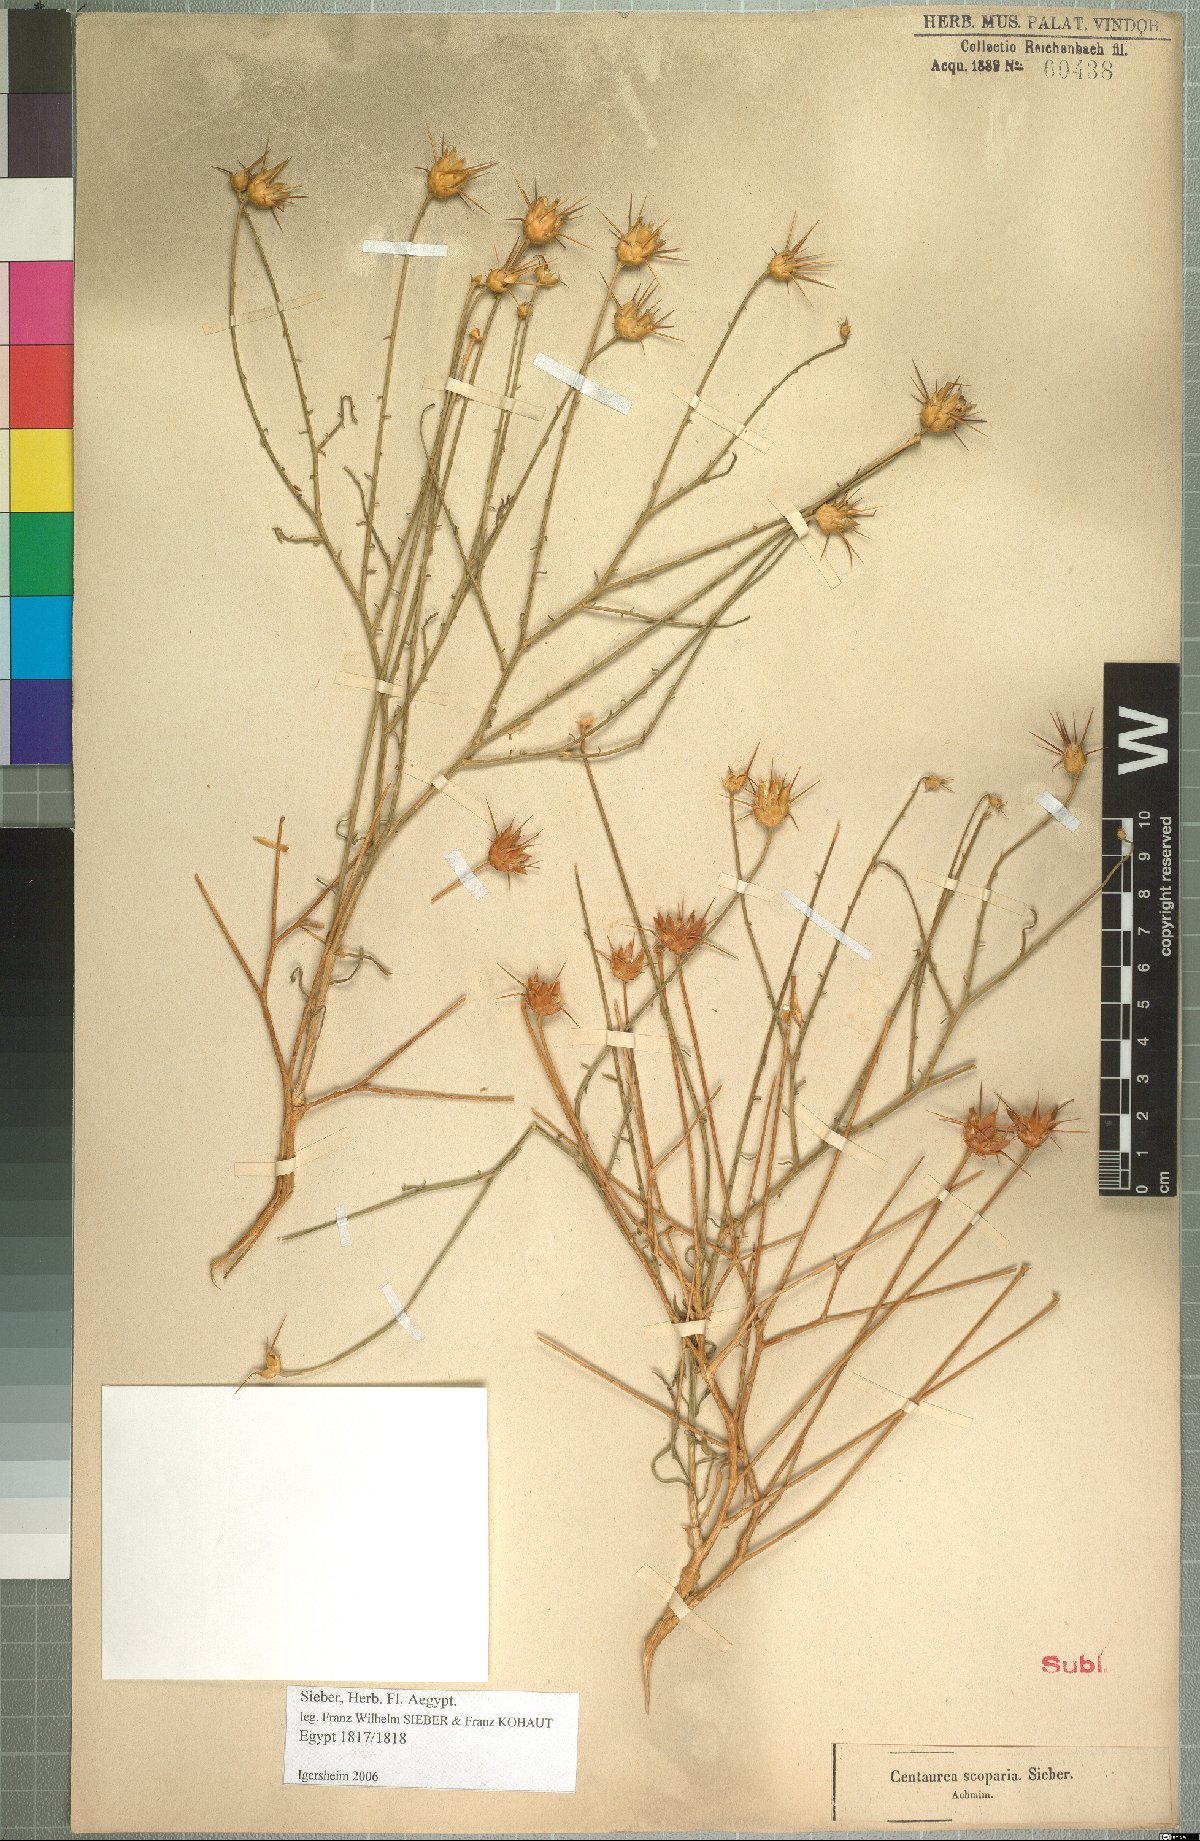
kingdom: Plantae
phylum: Tracheophyta
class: Magnoliopsida
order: Asterales
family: Asteraceae
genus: Centaurea
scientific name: Centaurea scoparia
